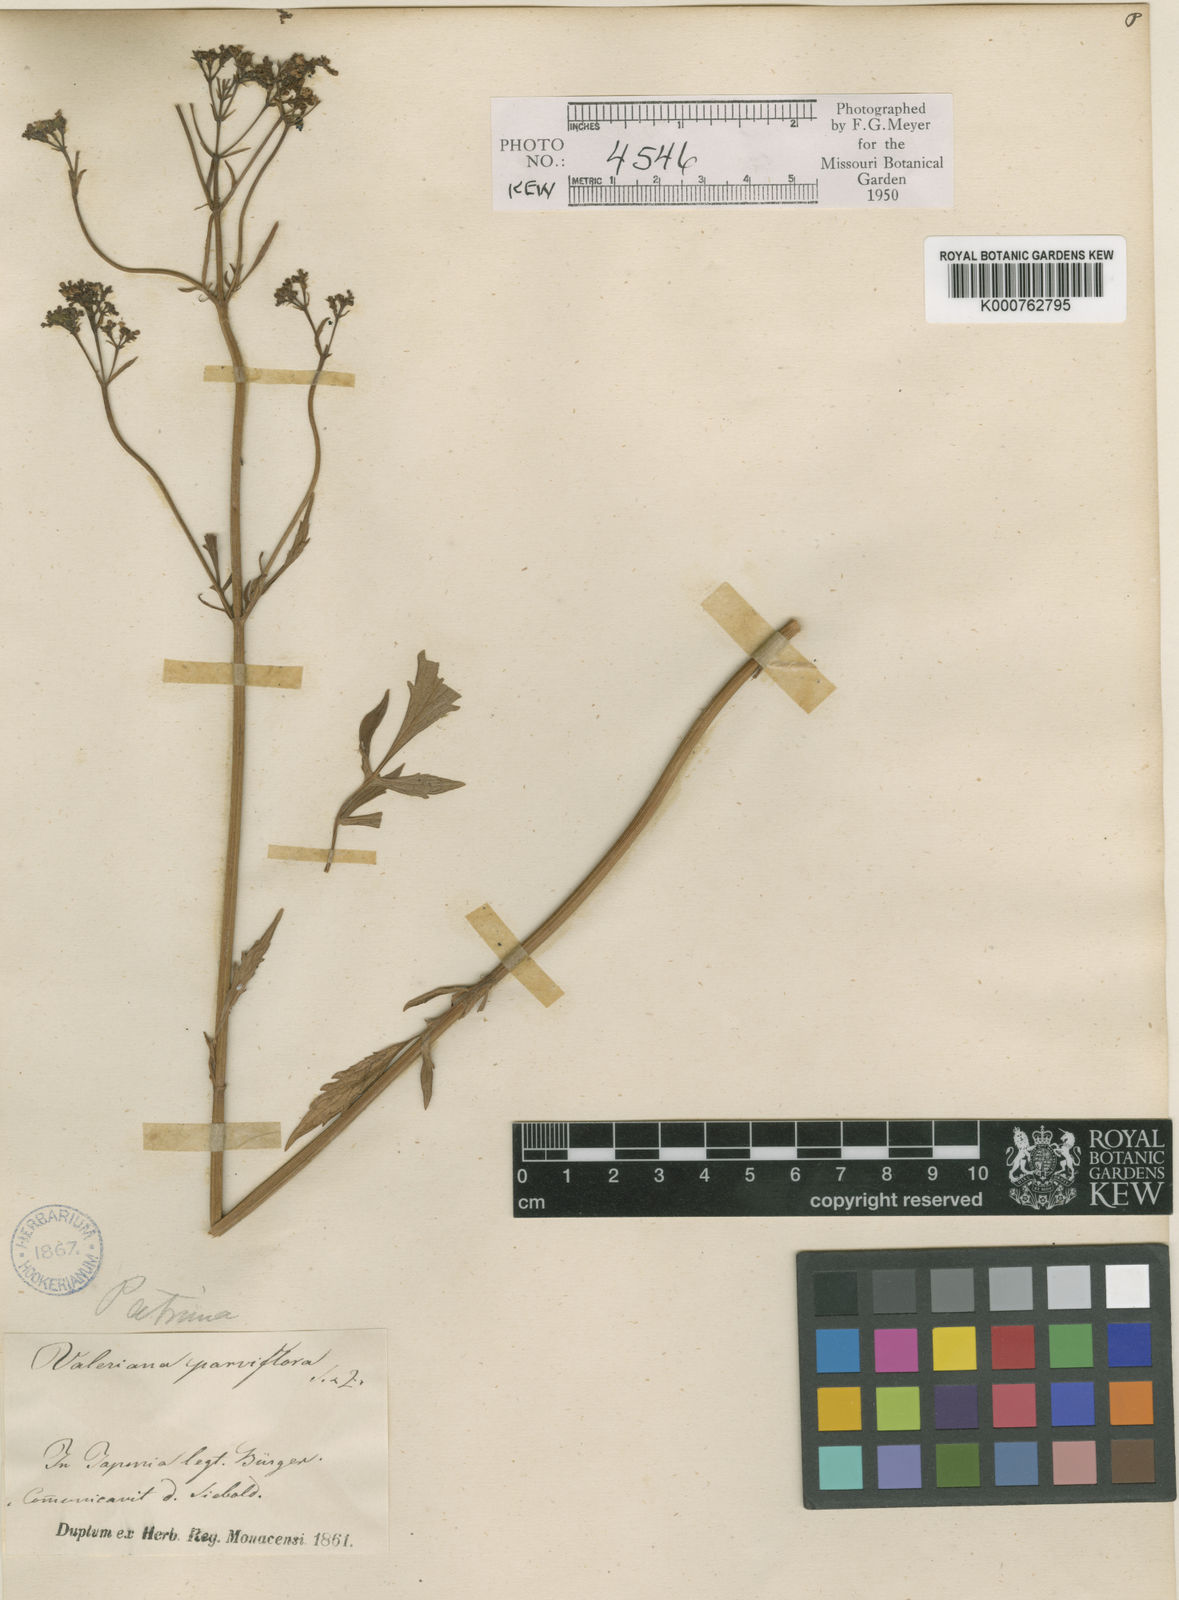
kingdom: Plantae
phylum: Tracheophyta
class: Magnoliopsida
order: Dipsacales
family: Caprifoliaceae
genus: Patrinia
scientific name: Patrinia scabiosifolia
